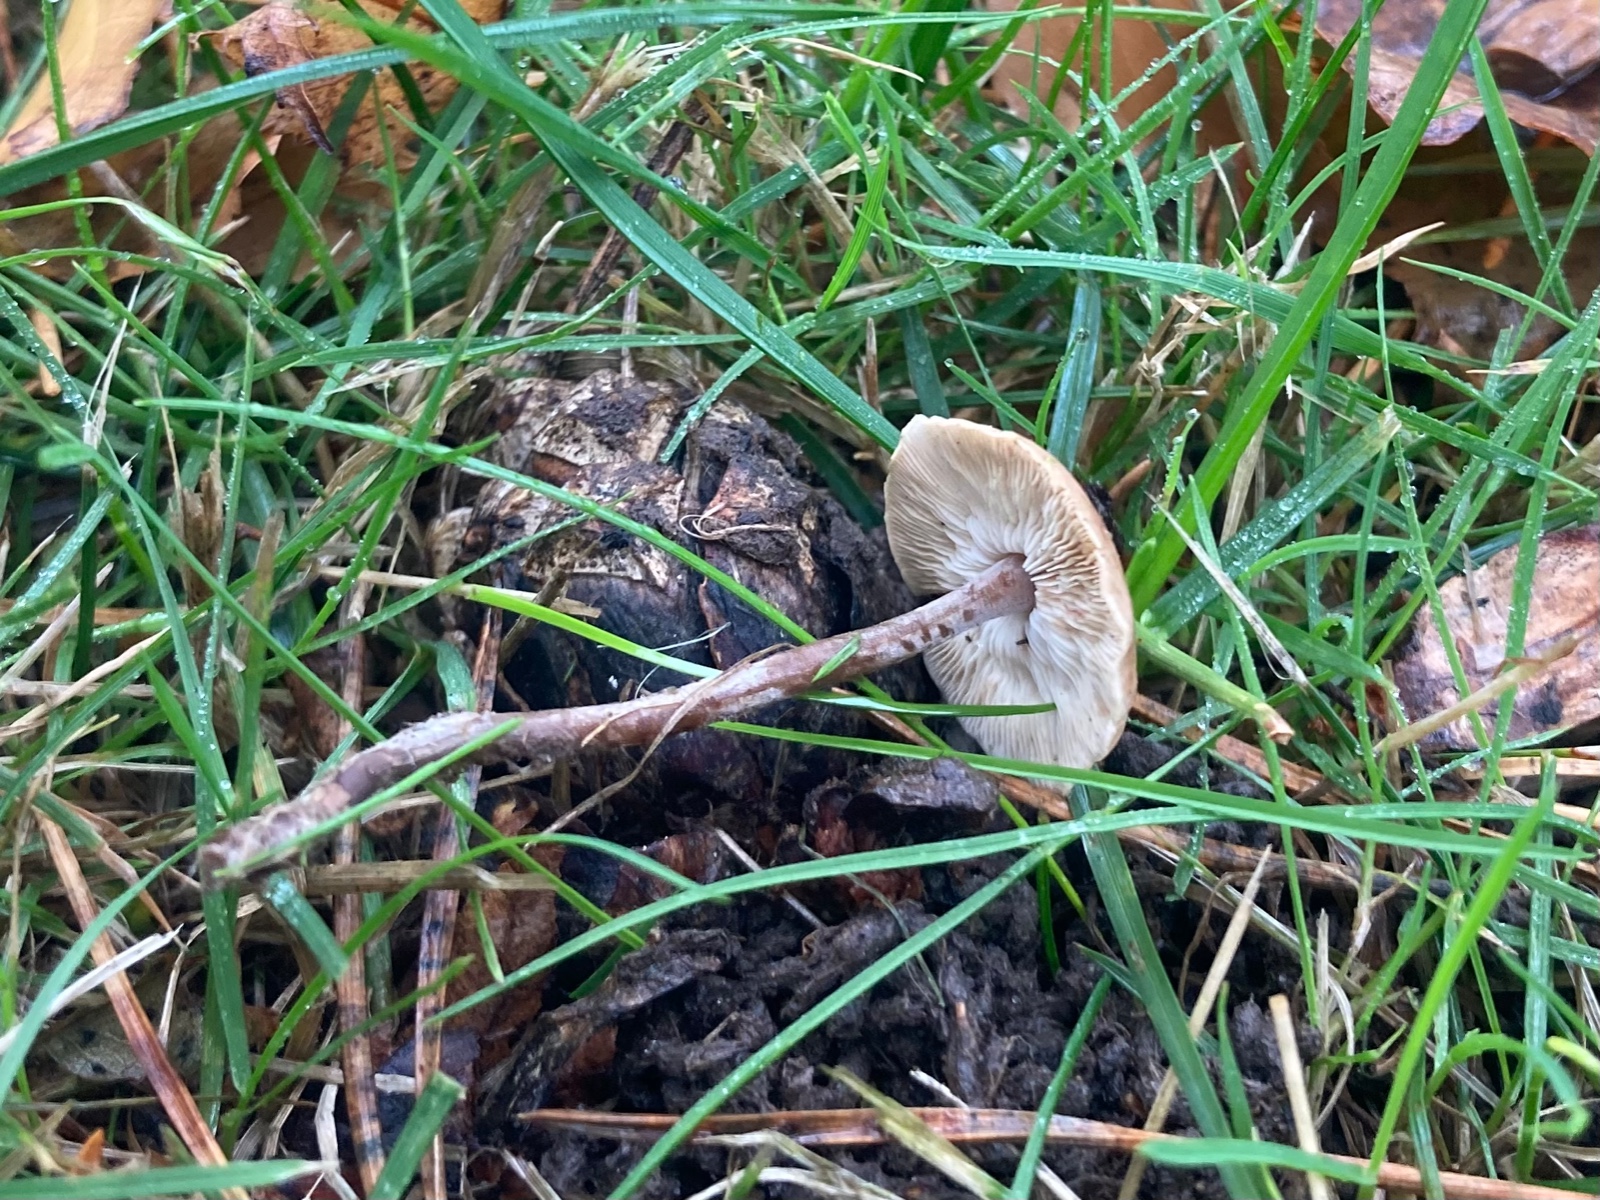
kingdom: Fungi
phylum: Basidiomycota
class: Agaricomycetes
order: Agaricales
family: Marasmiaceae
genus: Baeospora
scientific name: Baeospora myosura
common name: koglebruskhat
